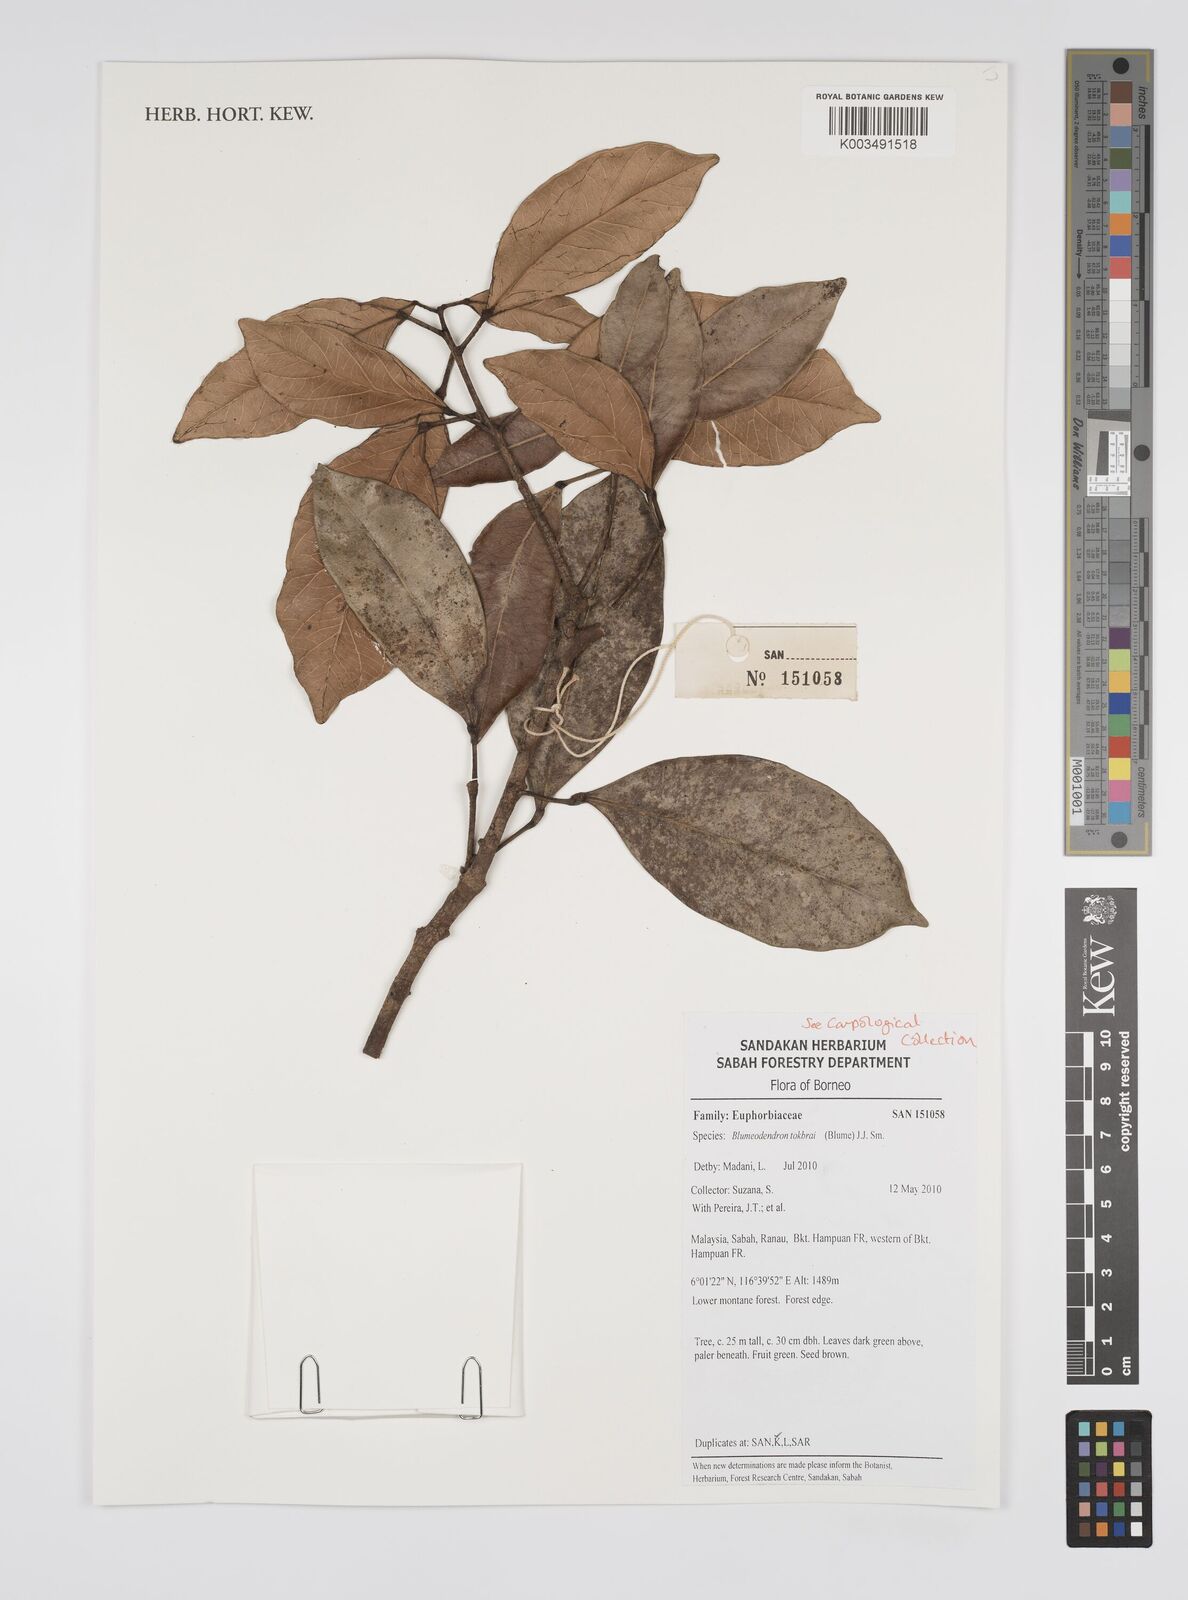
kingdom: Plantae
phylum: Tracheophyta
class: Magnoliopsida
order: Malpighiales
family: Euphorbiaceae
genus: Blumeodendron
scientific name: Blumeodendron tokbrai
